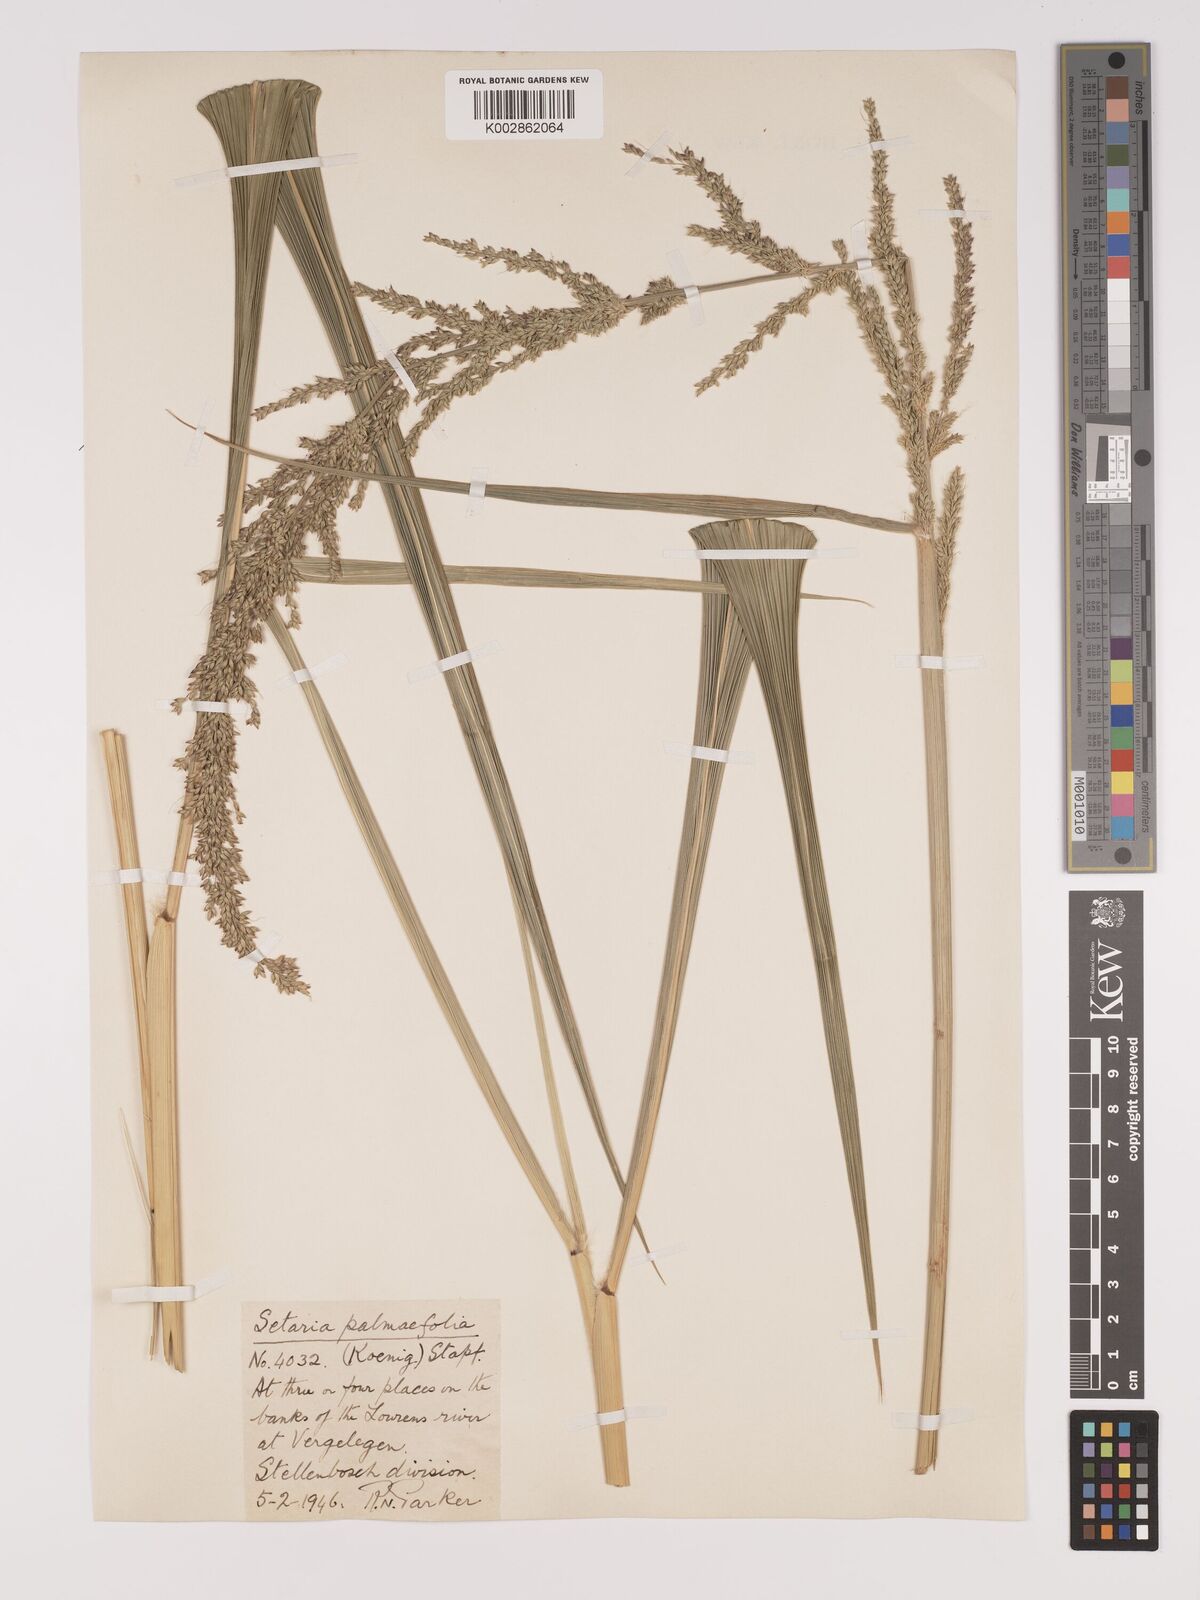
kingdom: Plantae
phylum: Tracheophyta
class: Liliopsida
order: Poales
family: Poaceae
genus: Setaria
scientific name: Setaria megaphylla
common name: Bigleaf bristlegrass
